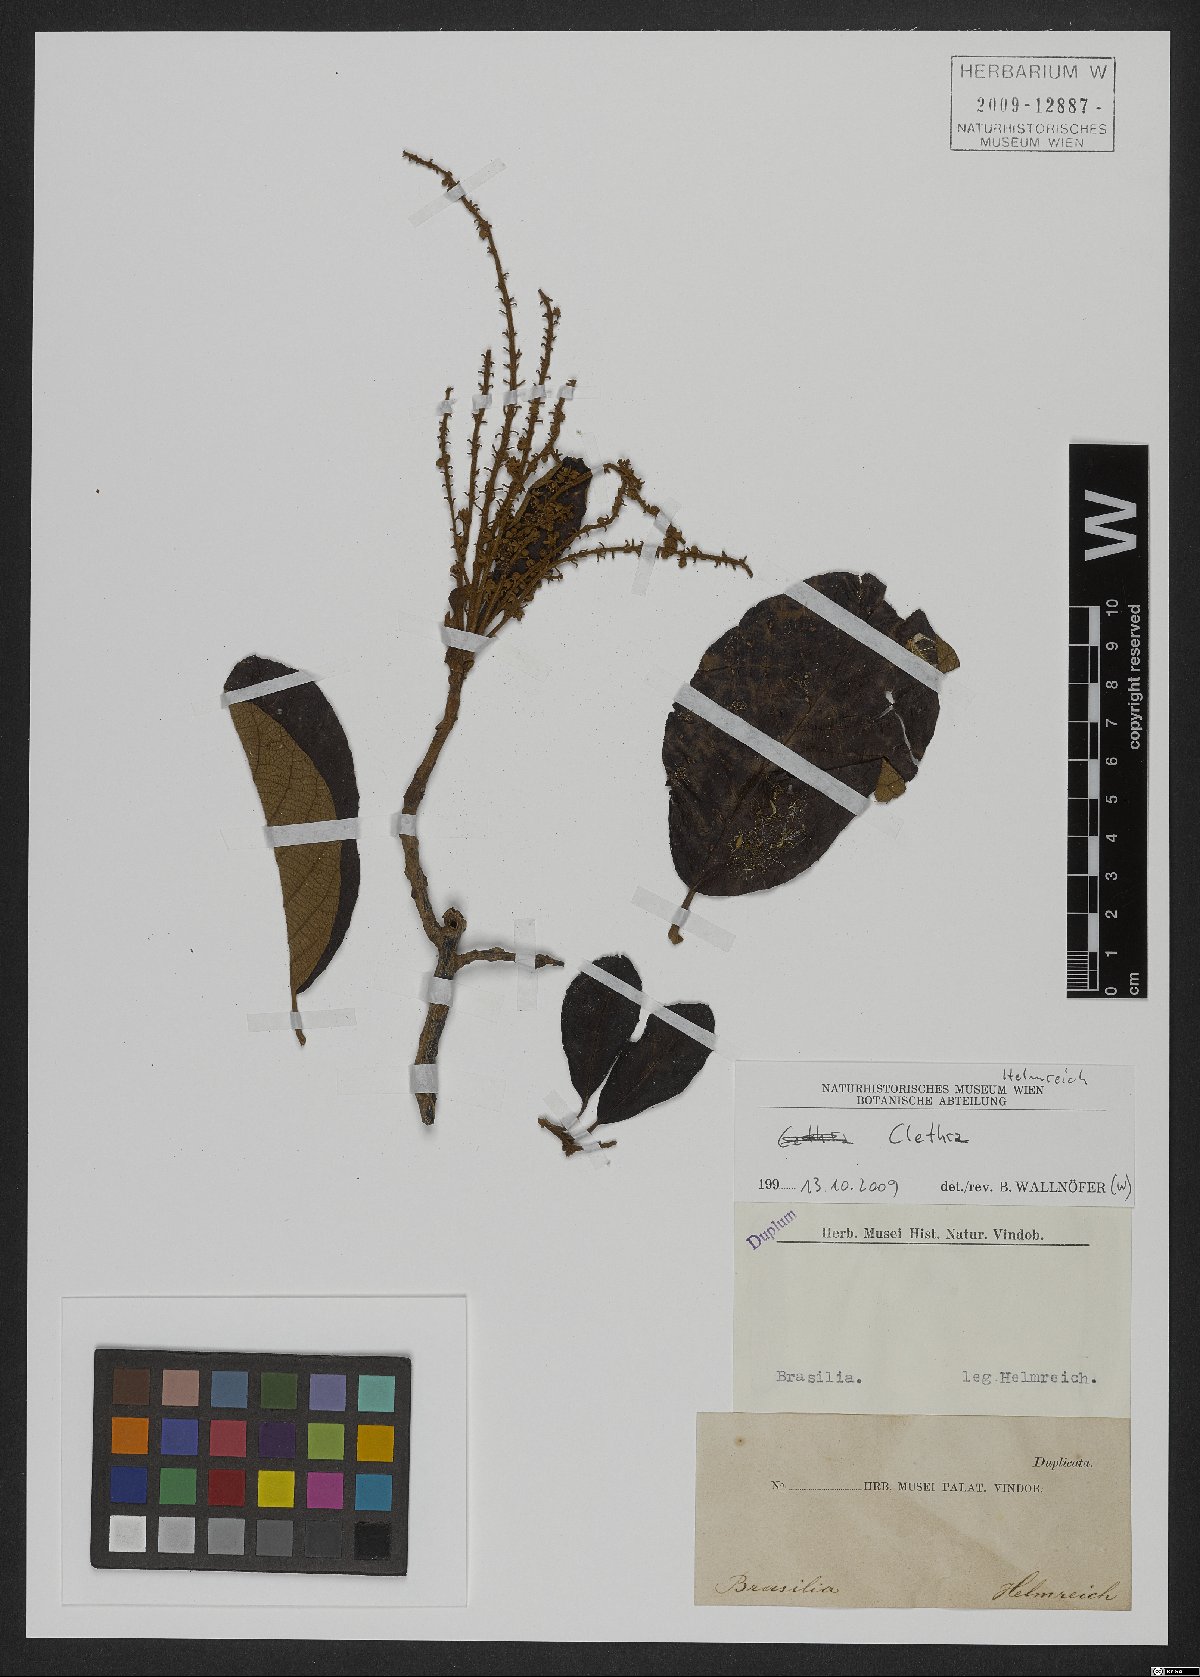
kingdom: Plantae
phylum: Tracheophyta
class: Magnoliopsida
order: Ericales
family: Clethraceae
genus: Clethra
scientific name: Clethra
